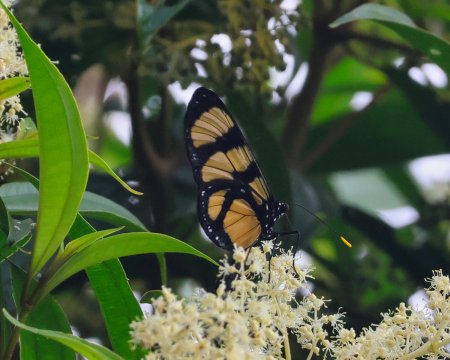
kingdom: Animalia
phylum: Arthropoda
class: Insecta
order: Lepidoptera
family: Nymphalidae
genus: Methona
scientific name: Methona confusa
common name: Confusa Tigerwing
